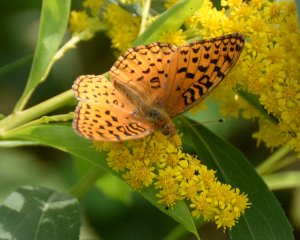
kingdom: Animalia
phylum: Arthropoda
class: Insecta
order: Lepidoptera
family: Nymphalidae
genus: Speyeria
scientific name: Speyeria aphrodite
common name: Aphrodite Fritillary
